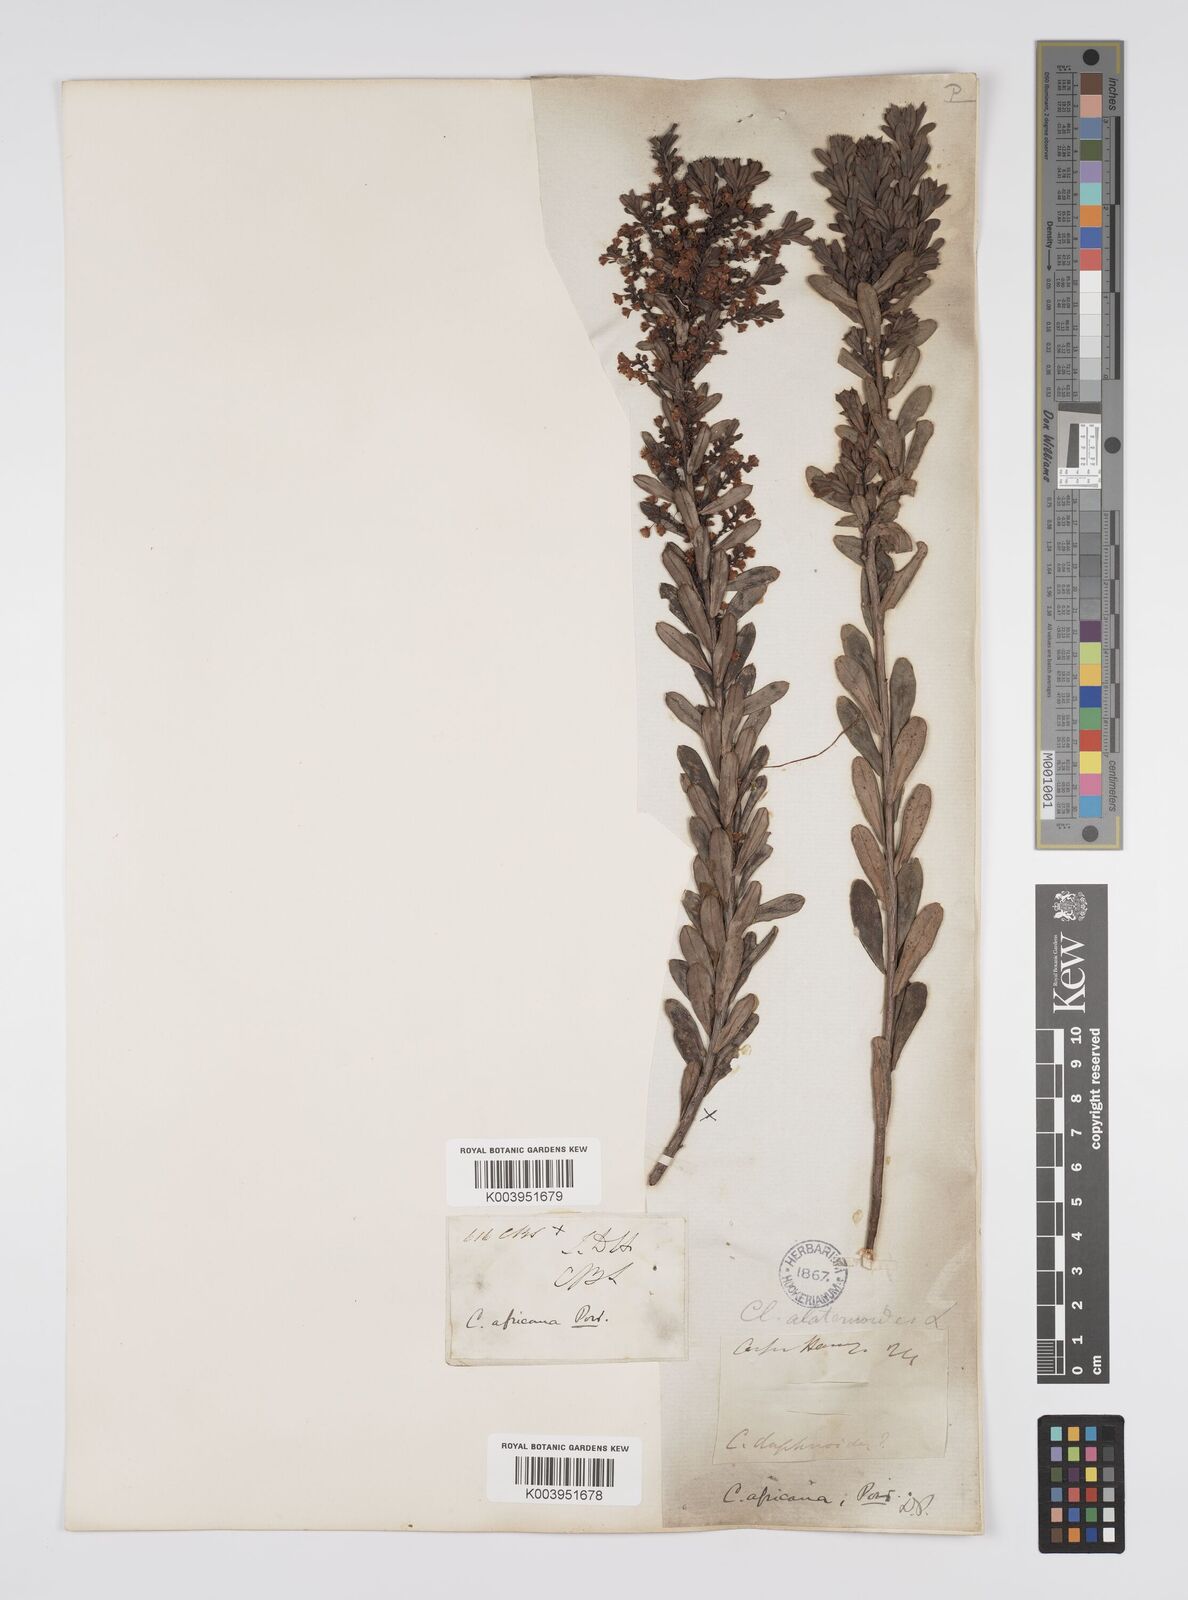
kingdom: Plantae
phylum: Tracheophyta
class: Magnoliopsida
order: Malpighiales
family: Peraceae
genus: Clutia
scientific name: Clutia africana
